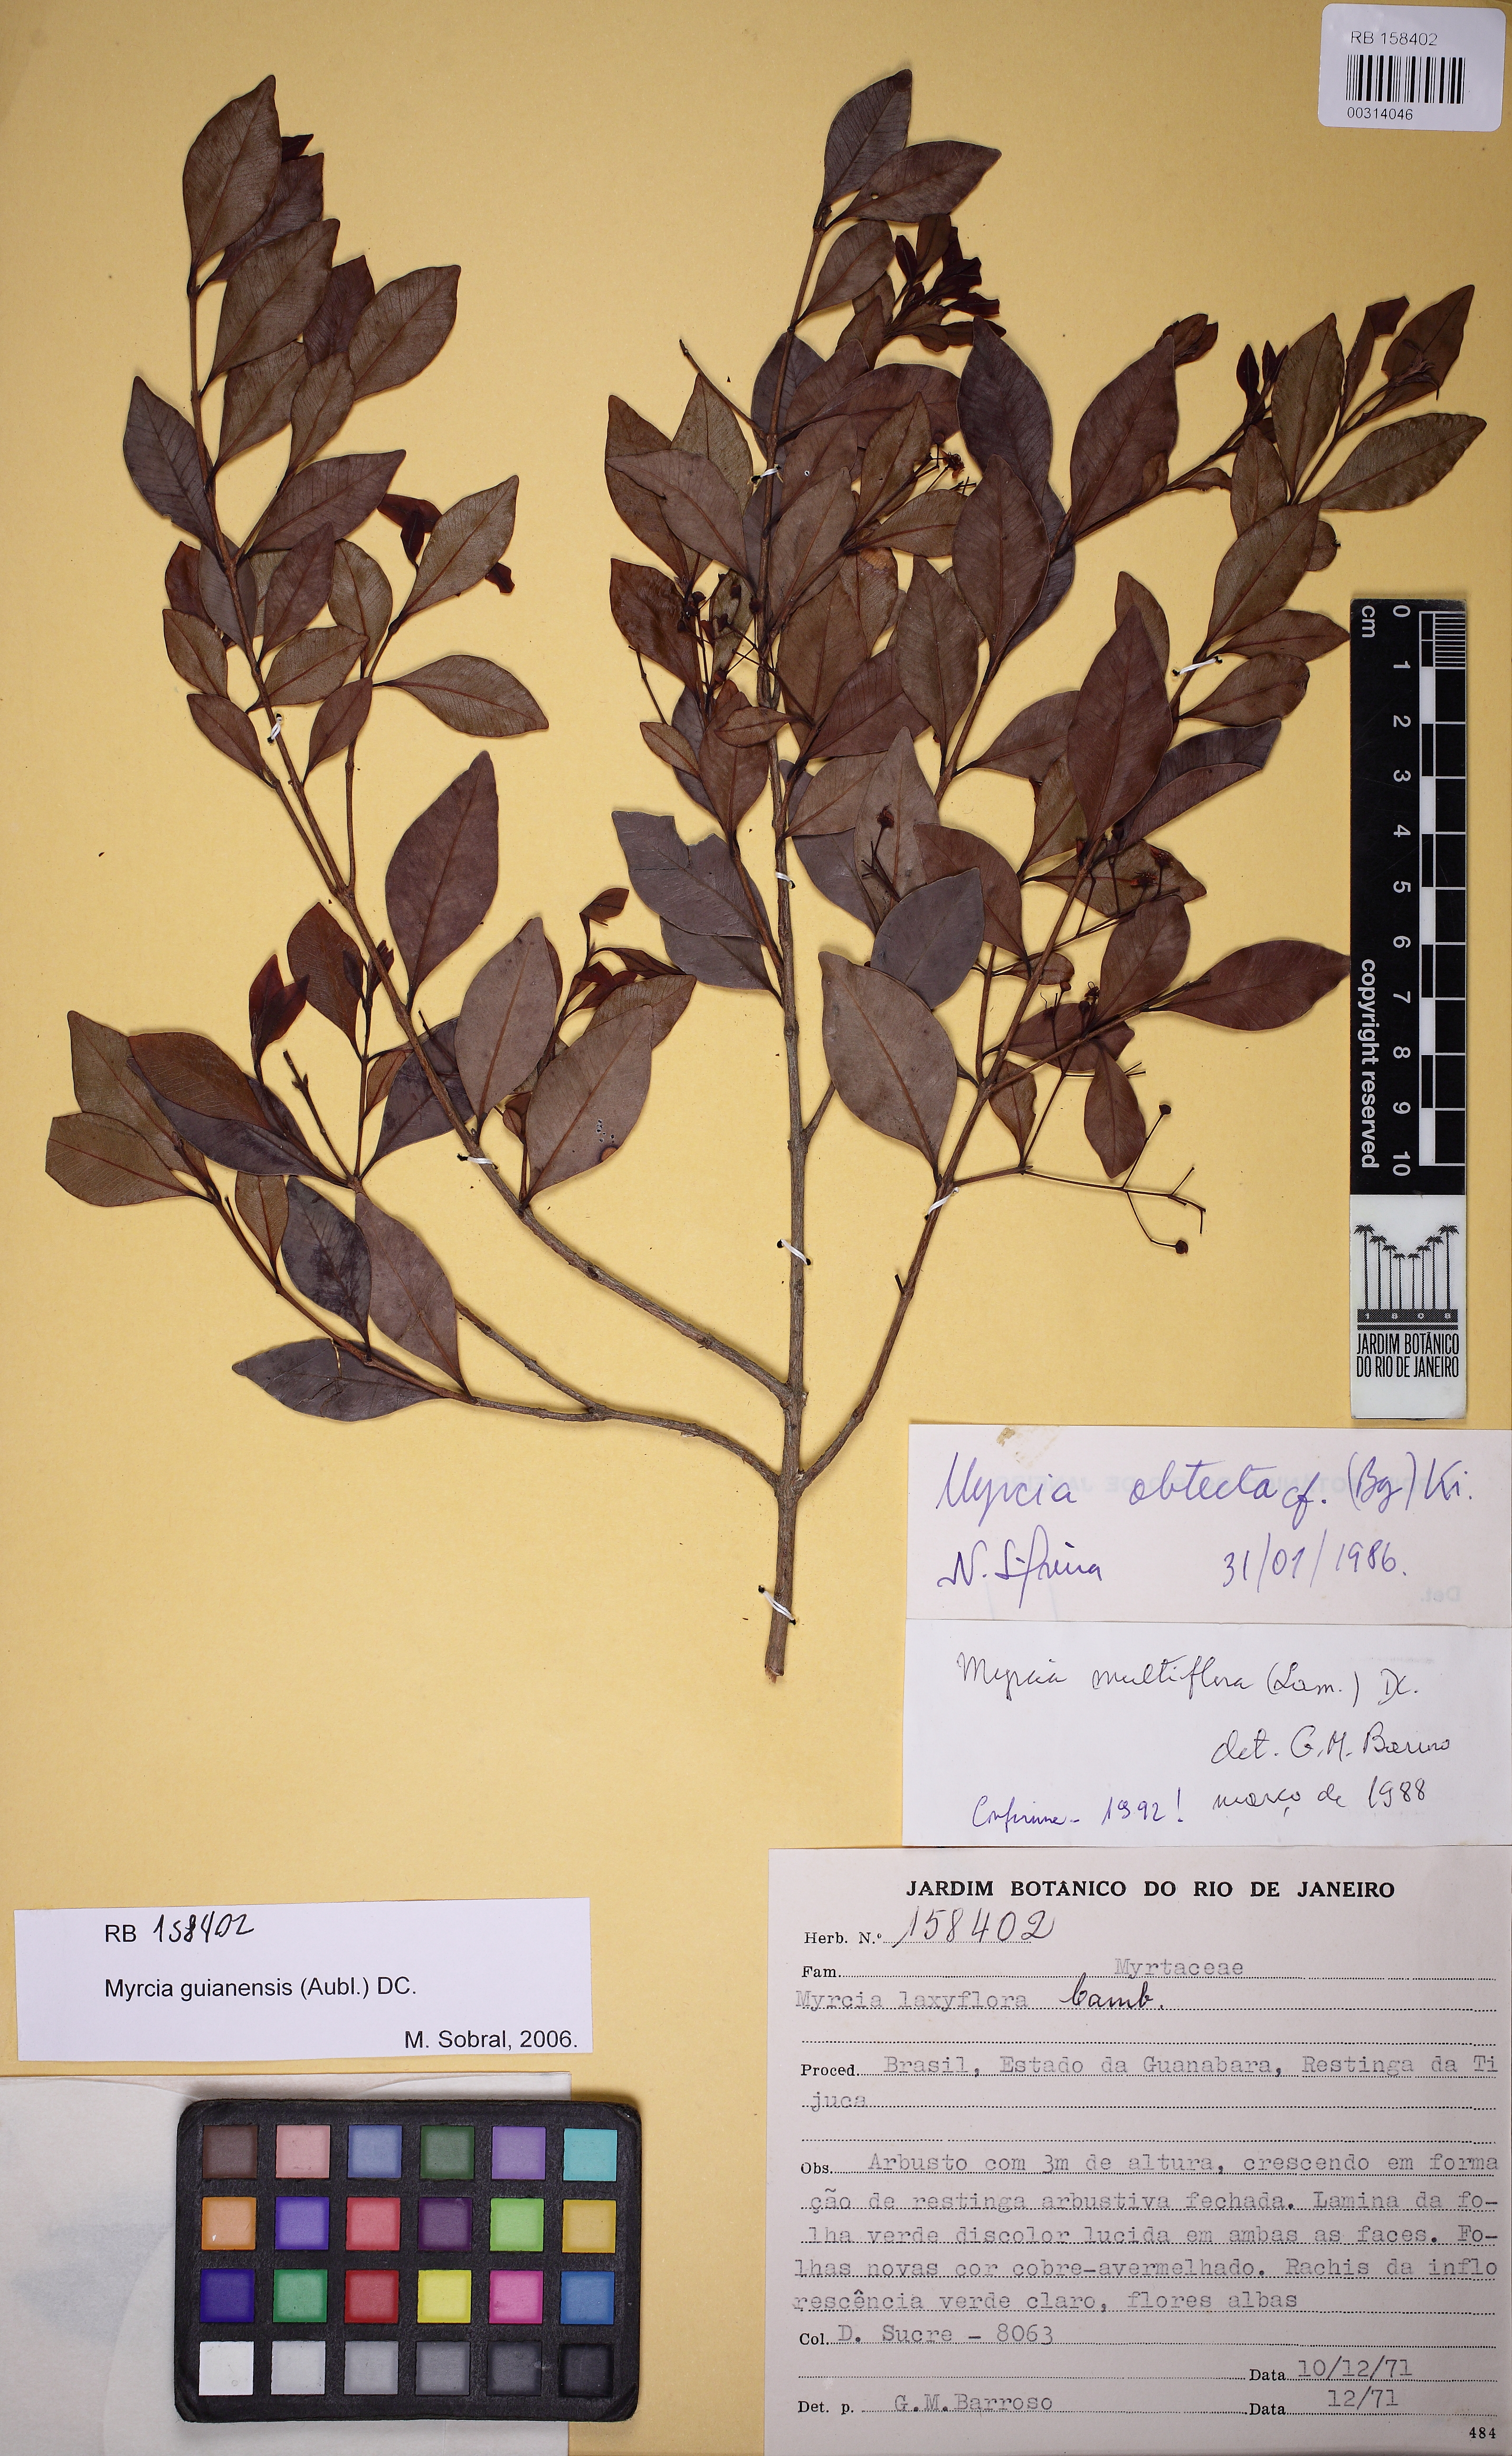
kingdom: Plantae
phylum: Tracheophyta
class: Magnoliopsida
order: Myrtales
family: Myrtaceae
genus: Myrcia
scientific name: Myrcia guianensis
